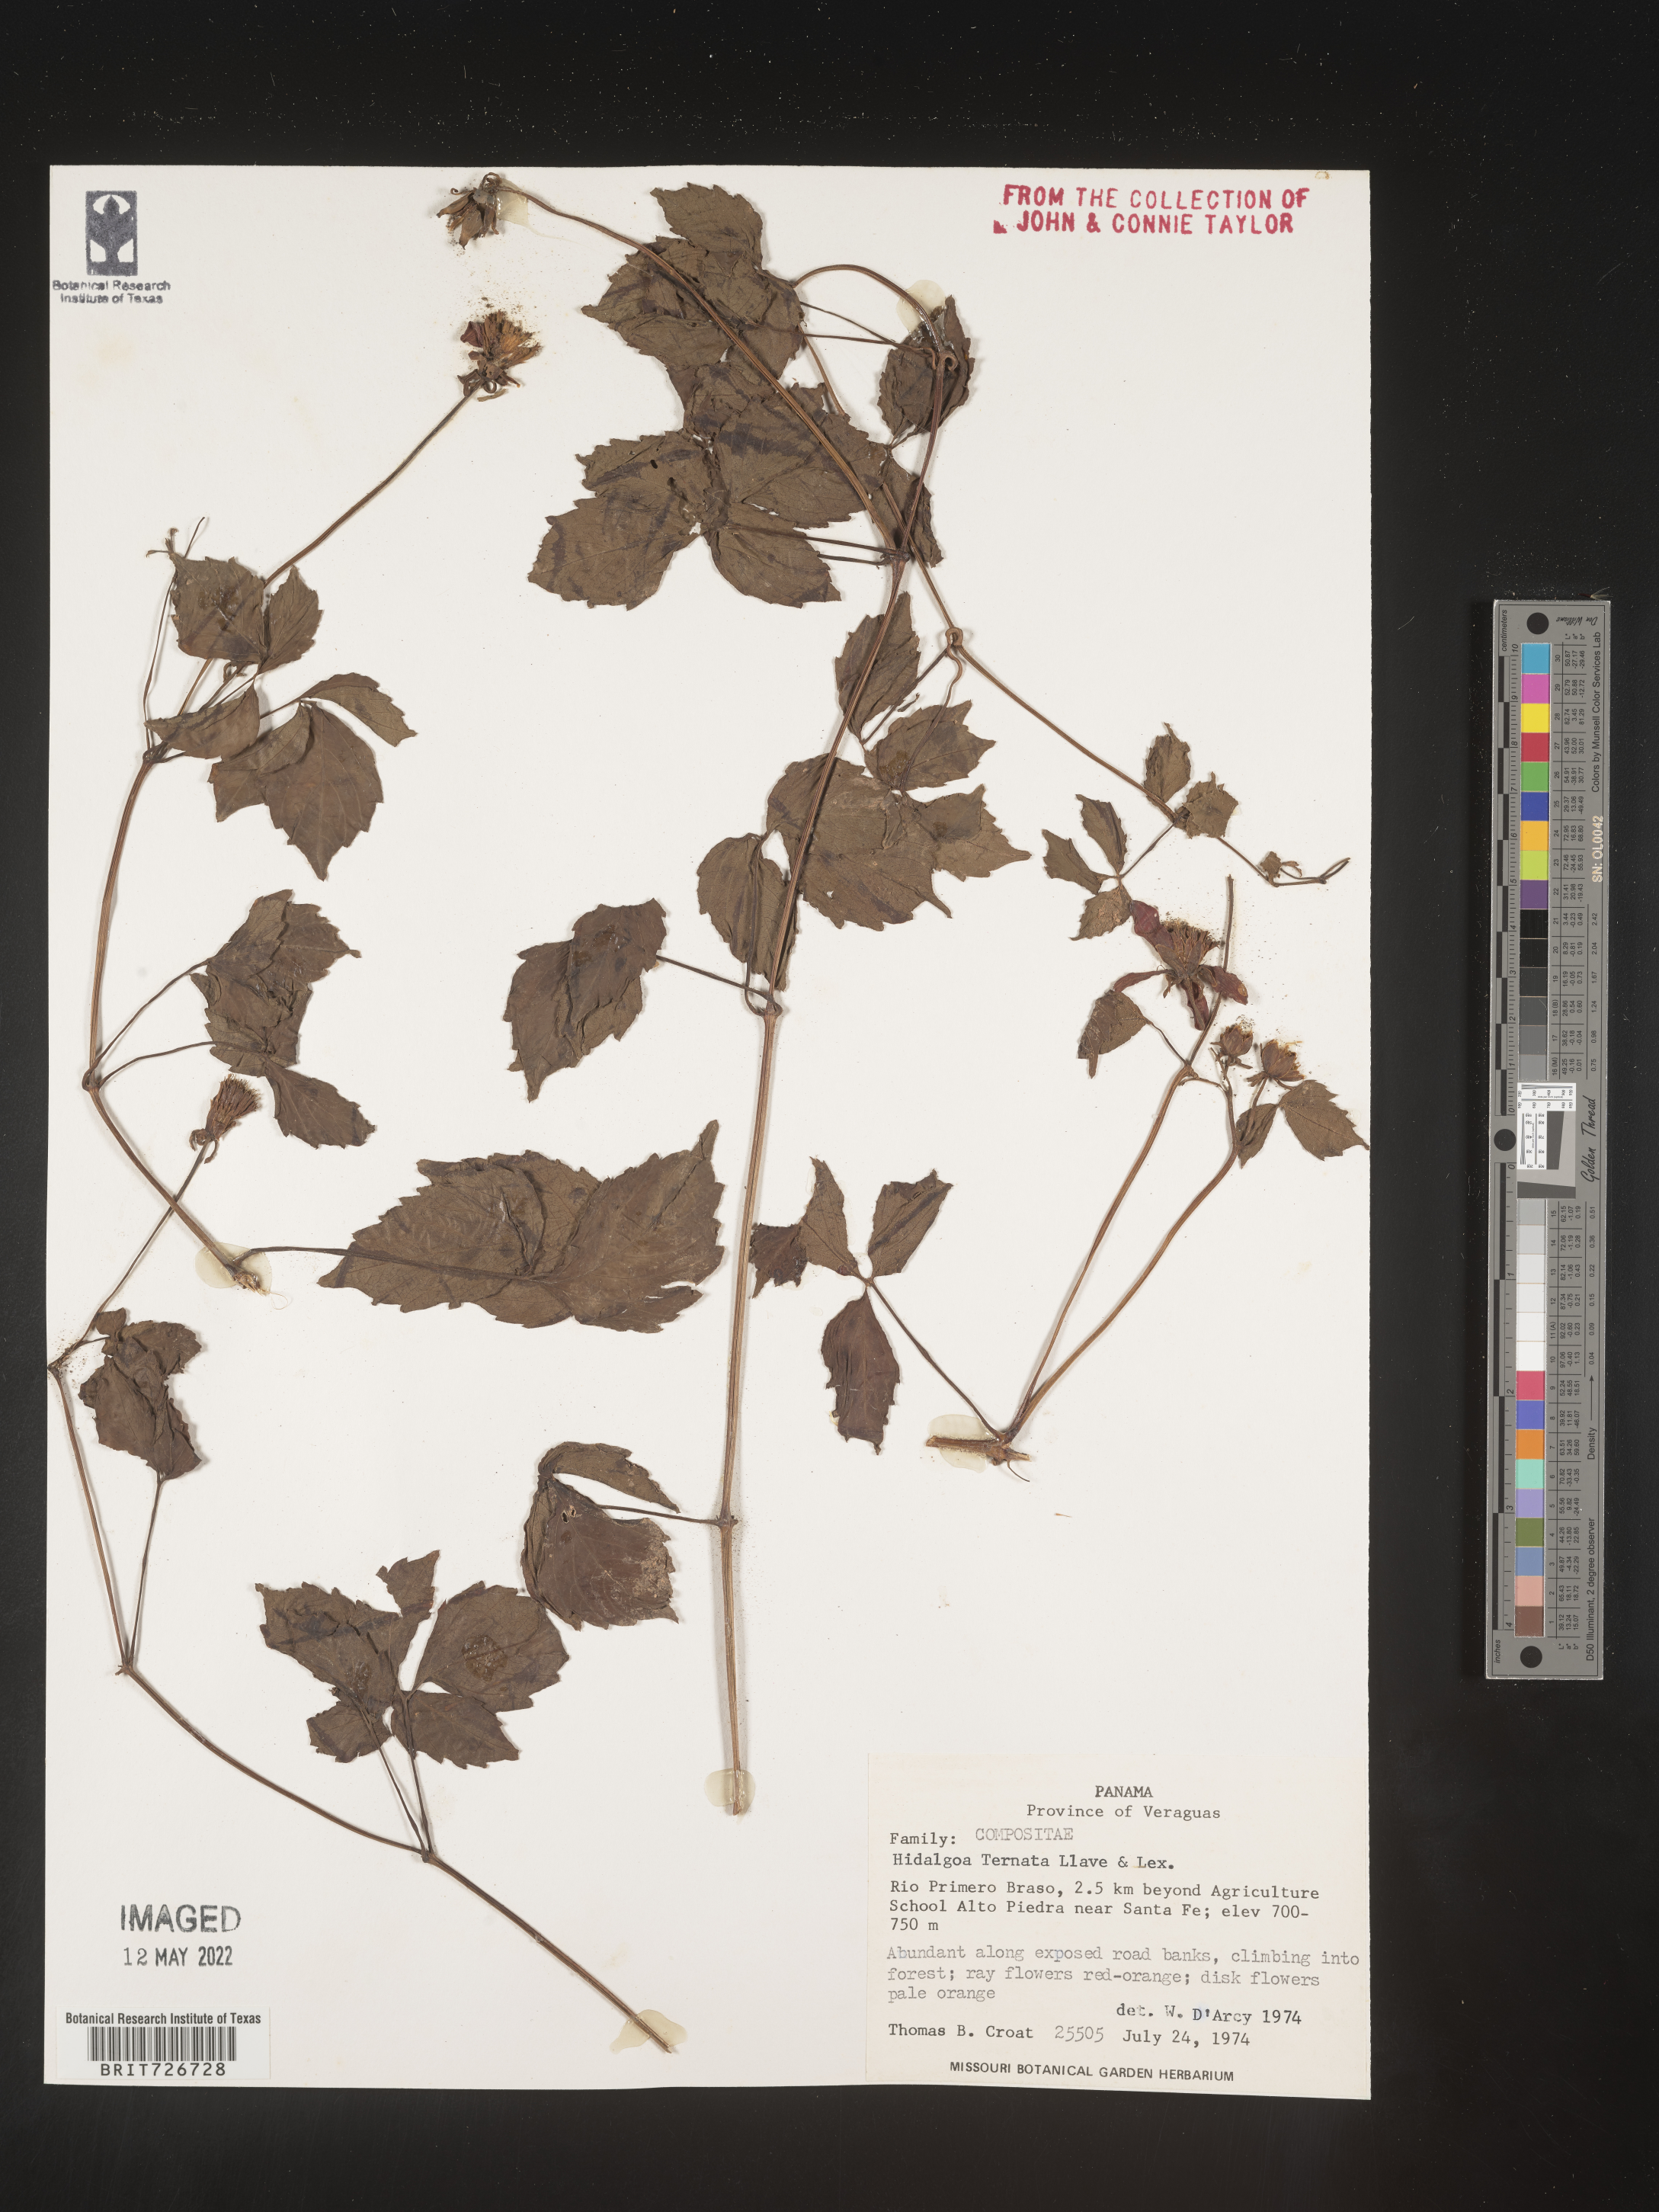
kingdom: Plantae
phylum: Tracheophyta
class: Magnoliopsida
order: Asterales
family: Asteraceae
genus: Hidalgoa
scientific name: Hidalgoa
